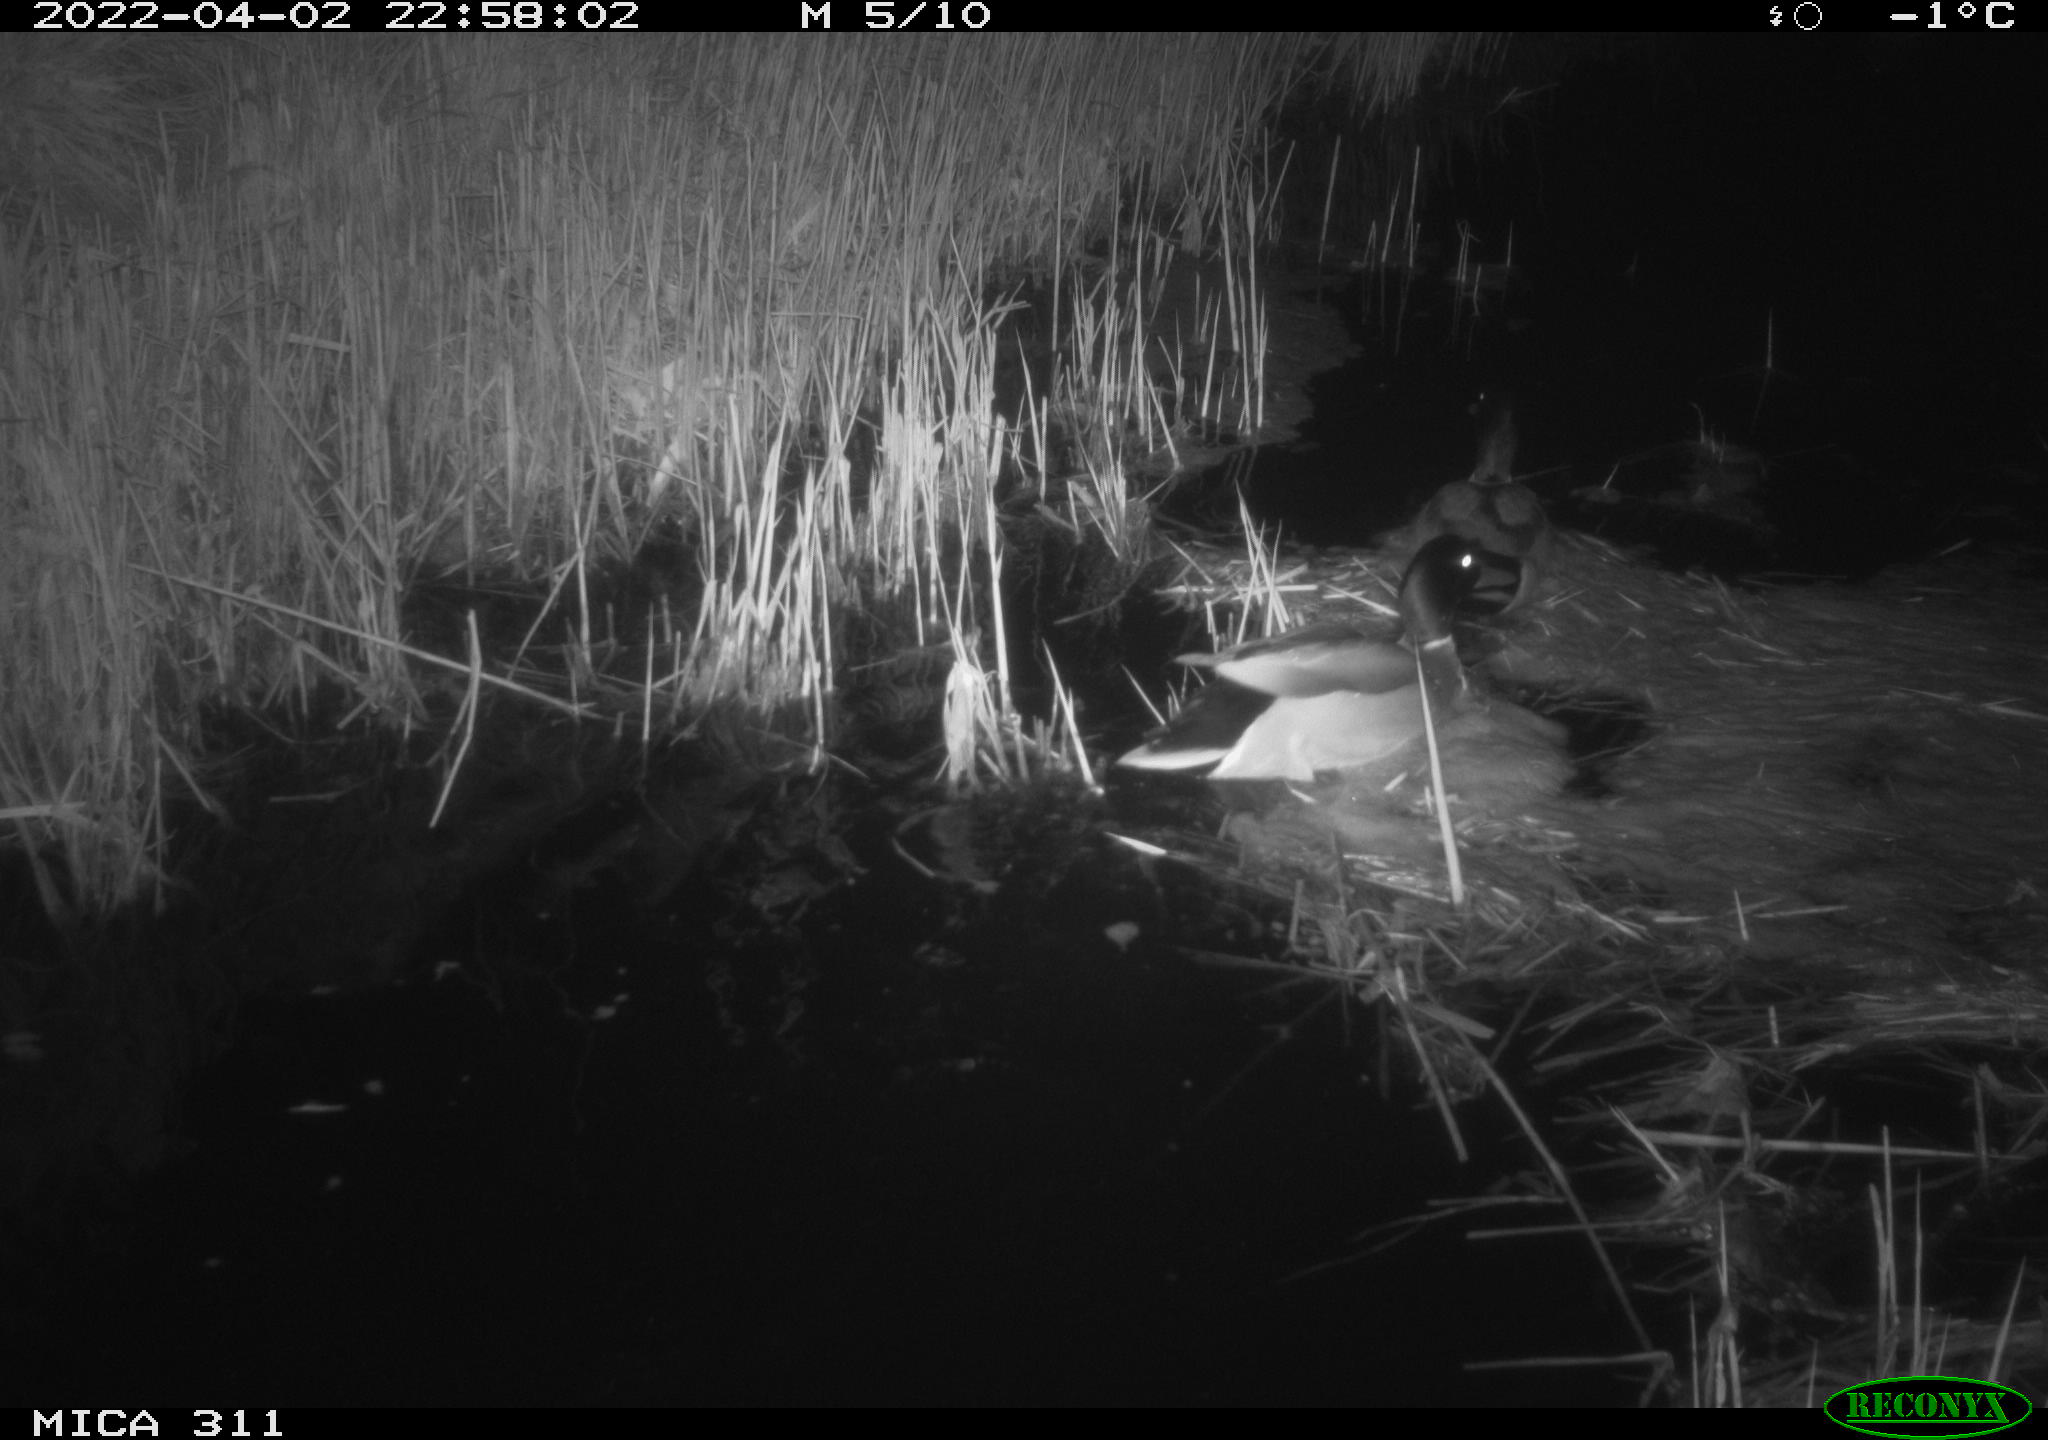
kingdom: Animalia
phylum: Chordata
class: Aves
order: Anseriformes
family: Anatidae
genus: Anas
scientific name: Anas platyrhynchos
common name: Mallard
